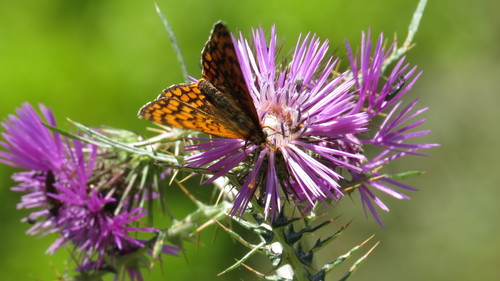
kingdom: Animalia
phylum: Arthropoda
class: Insecta
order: Lepidoptera
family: Nymphalidae
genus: Melitaea
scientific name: Melitaea deione
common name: Provençal fritillary
